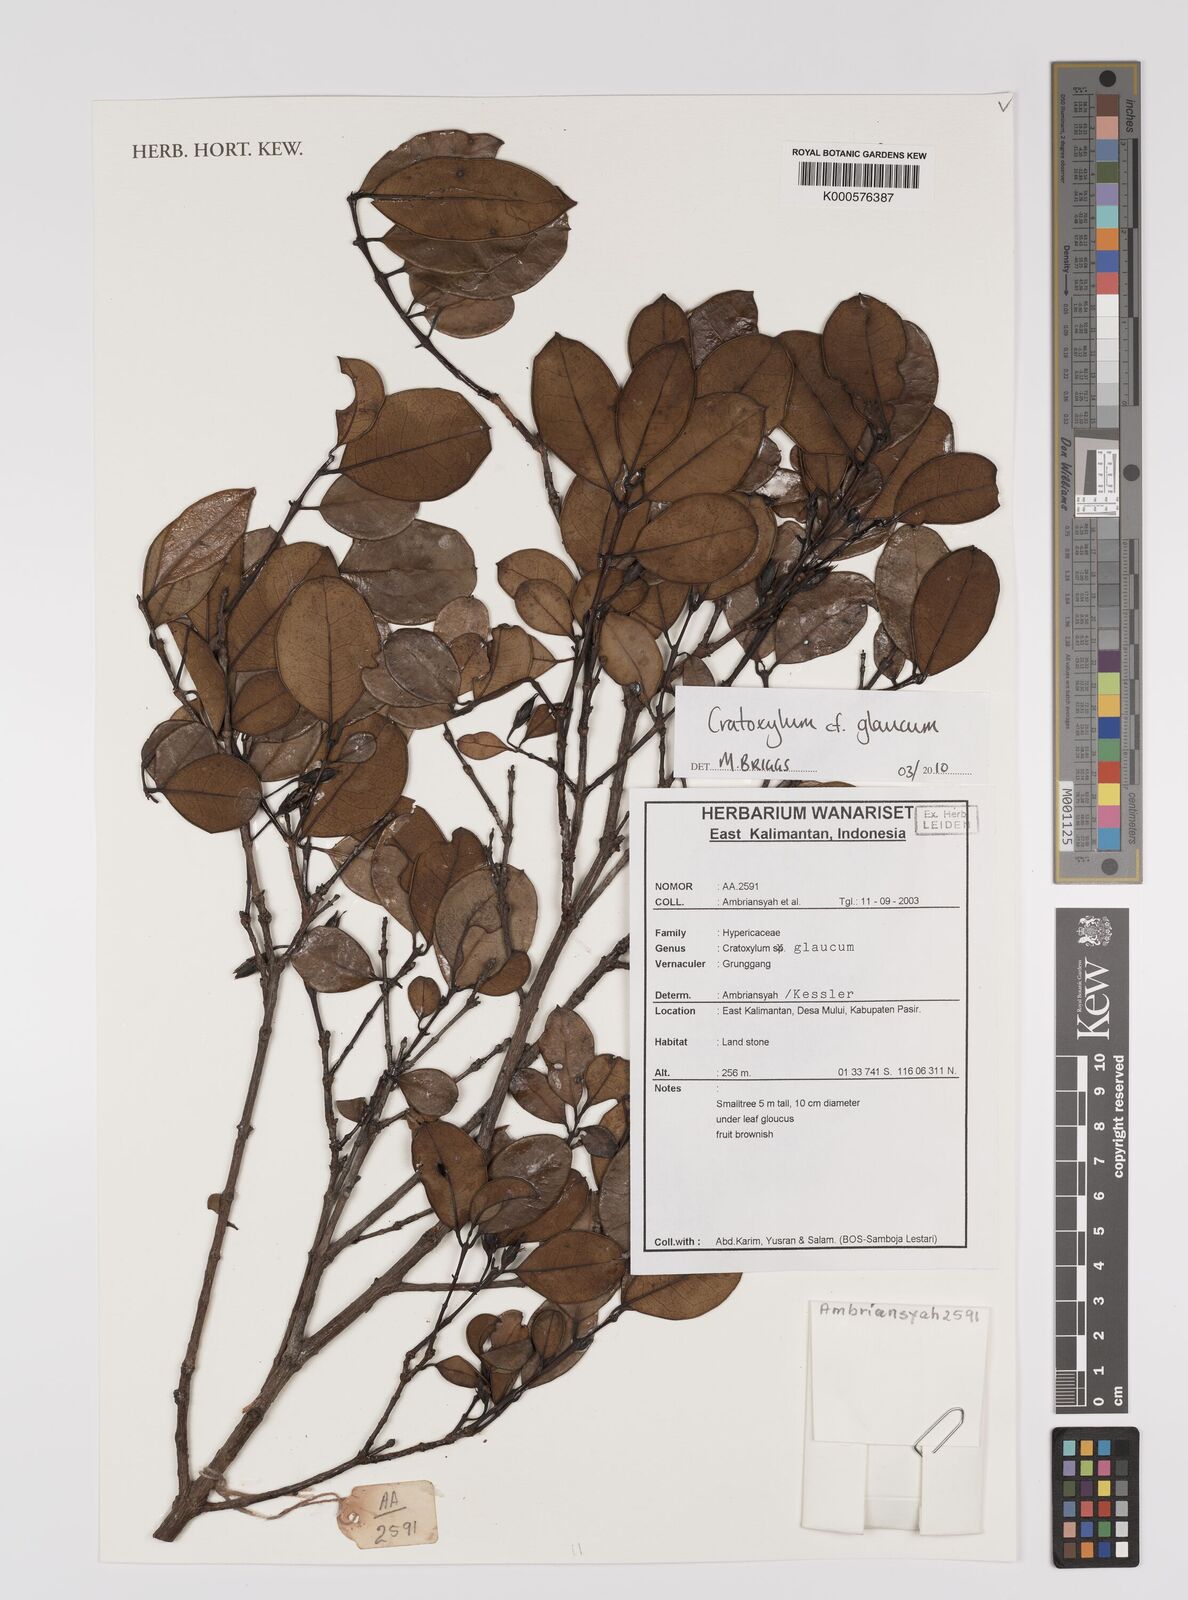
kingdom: Plantae
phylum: Tracheophyta
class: Magnoliopsida
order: Malpighiales
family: Hypericaceae
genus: Cratoxylum
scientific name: Cratoxylum glaucum
